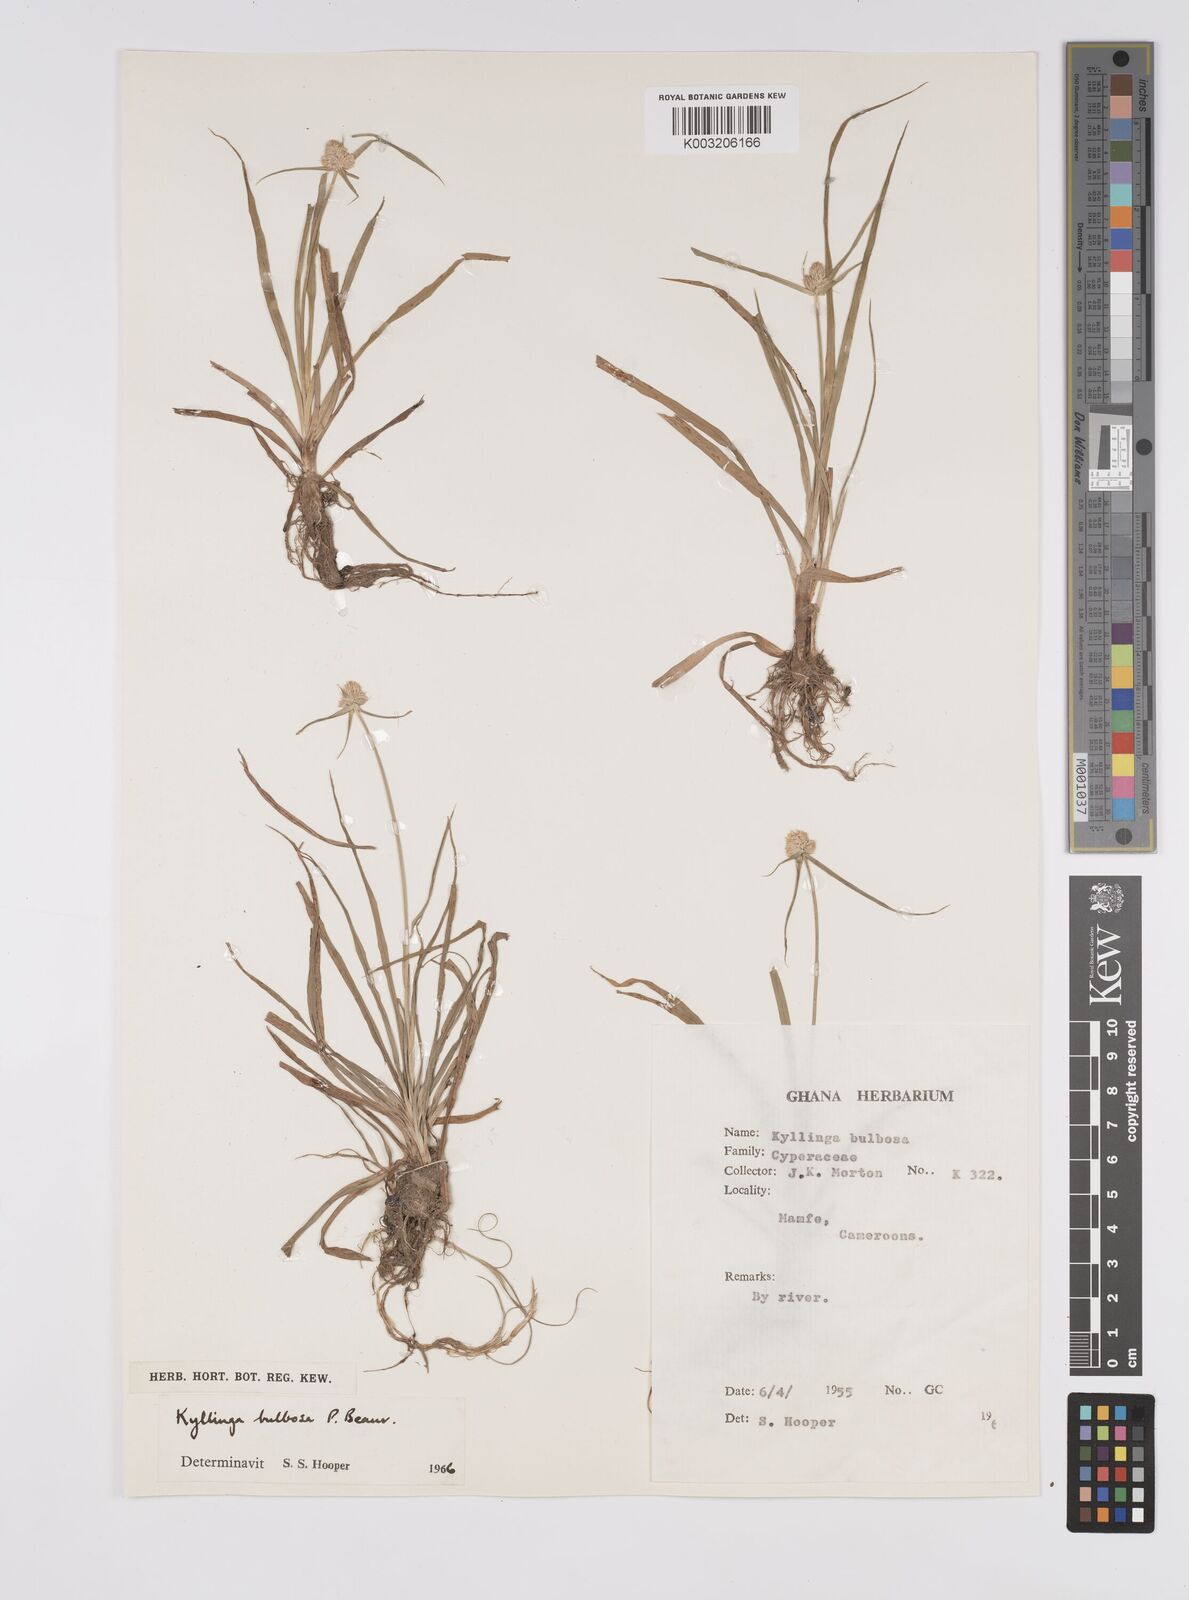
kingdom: Plantae
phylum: Tracheophyta
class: Liliopsida
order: Poales
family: Cyperaceae
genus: Cyperus
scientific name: Cyperus
